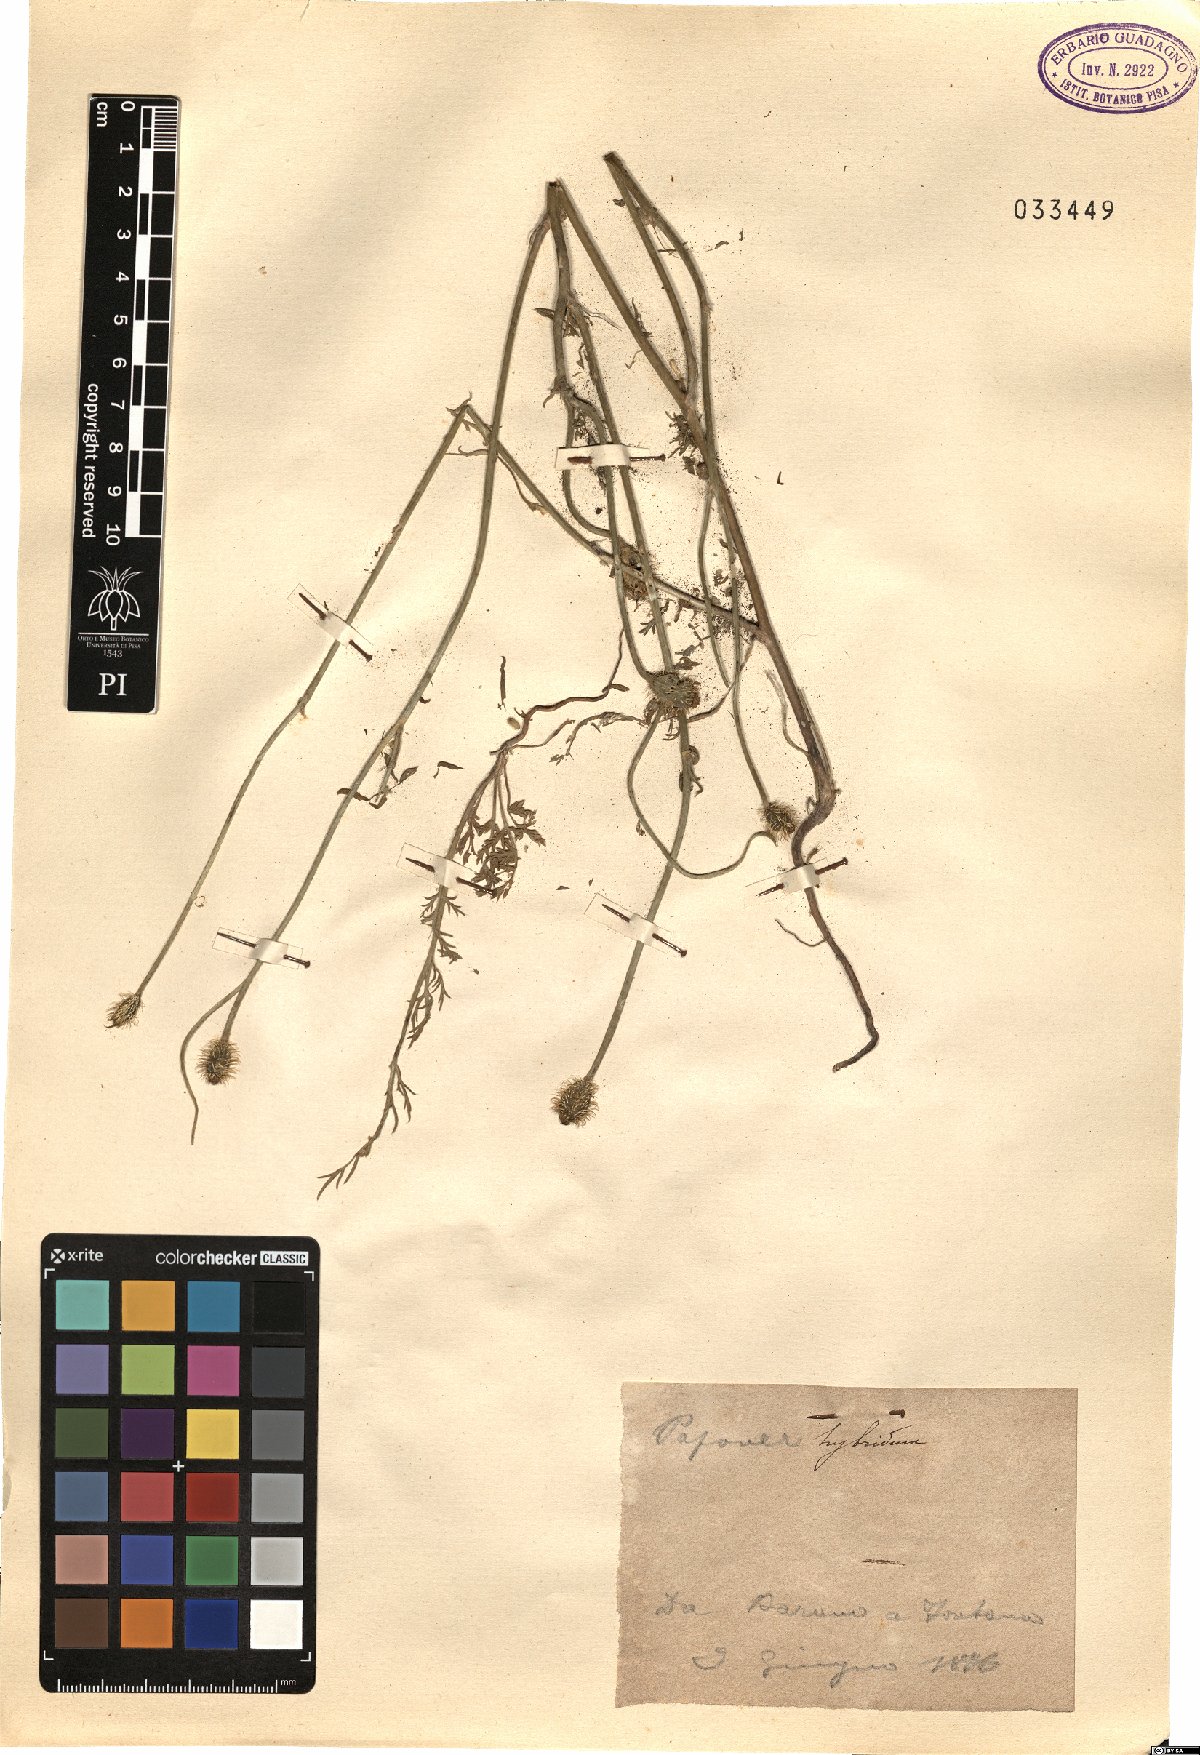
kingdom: Plantae
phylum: Tracheophyta
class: Magnoliopsida
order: Ranunculales
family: Papaveraceae
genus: Roemeria
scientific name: Roemeria hispida
